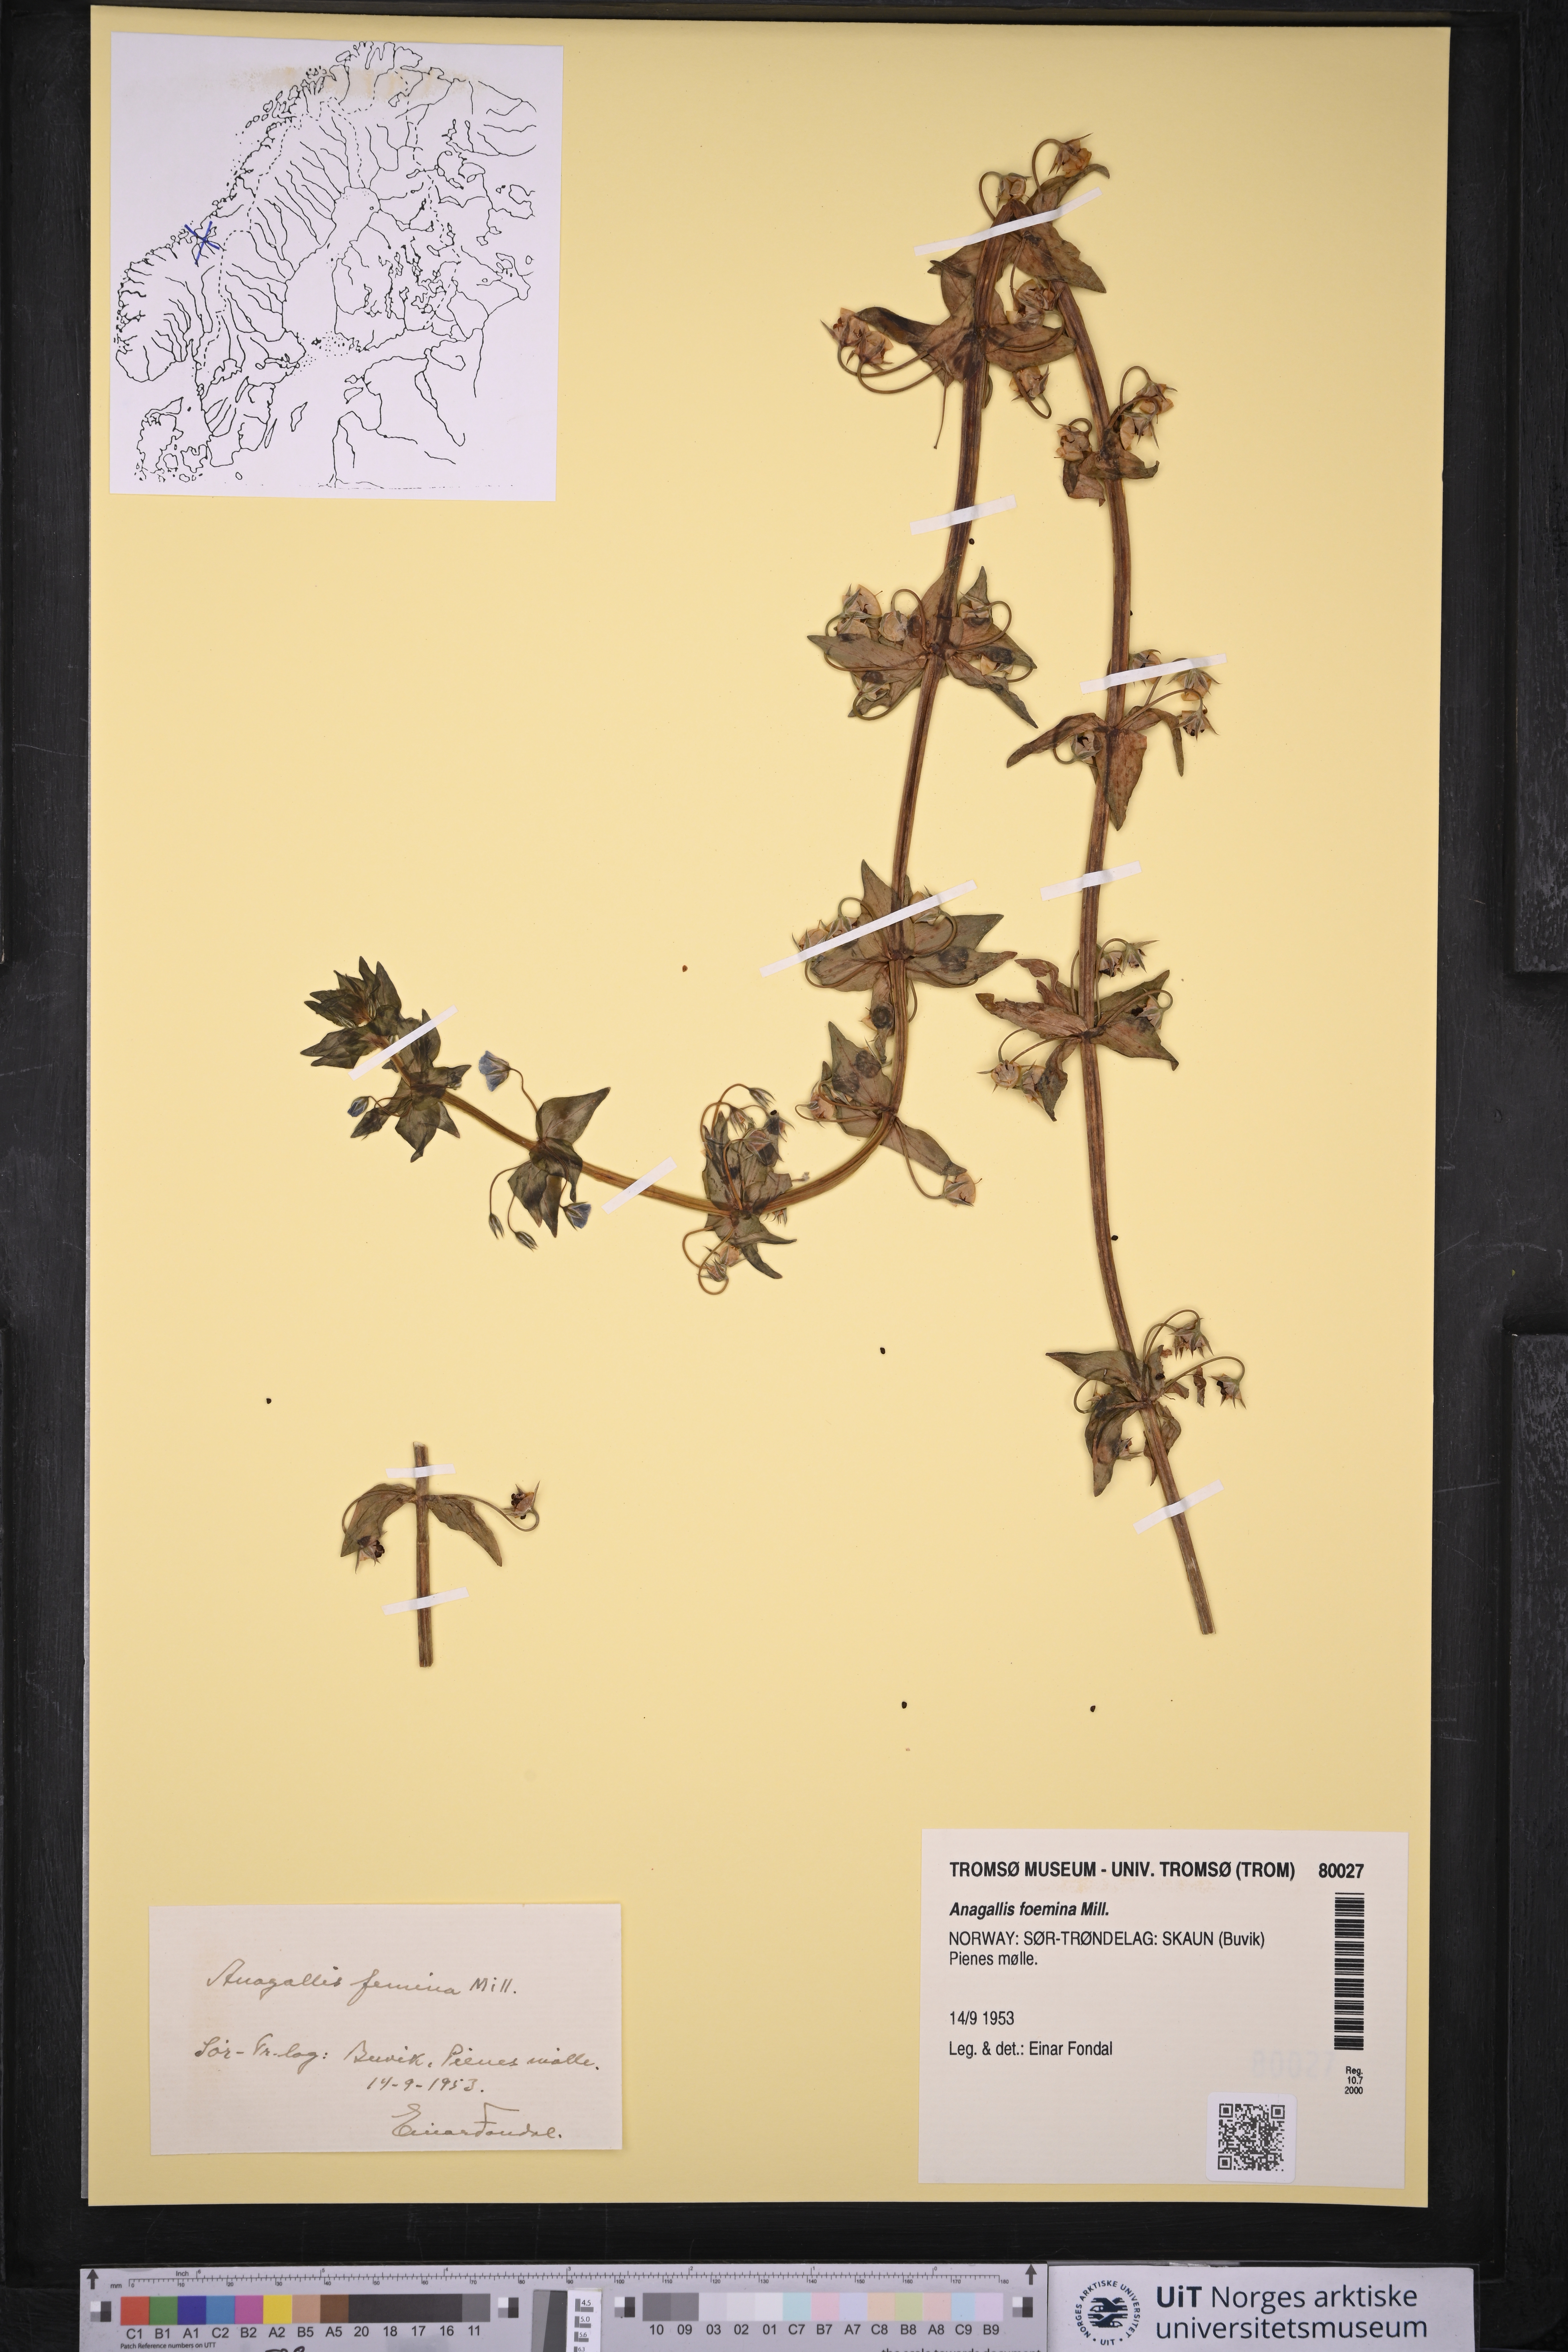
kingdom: Plantae
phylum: Tracheophyta
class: Magnoliopsida
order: Ericales
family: Primulaceae
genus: Lysimachia
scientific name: Lysimachia foemina
